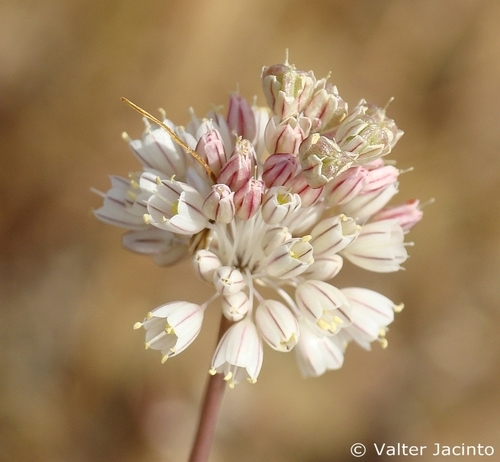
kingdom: Plantae
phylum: Tracheophyta
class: Liliopsida
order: Asparagales
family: Amaryllidaceae
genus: Allium
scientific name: Allium paniculatum
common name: Pale garlic
